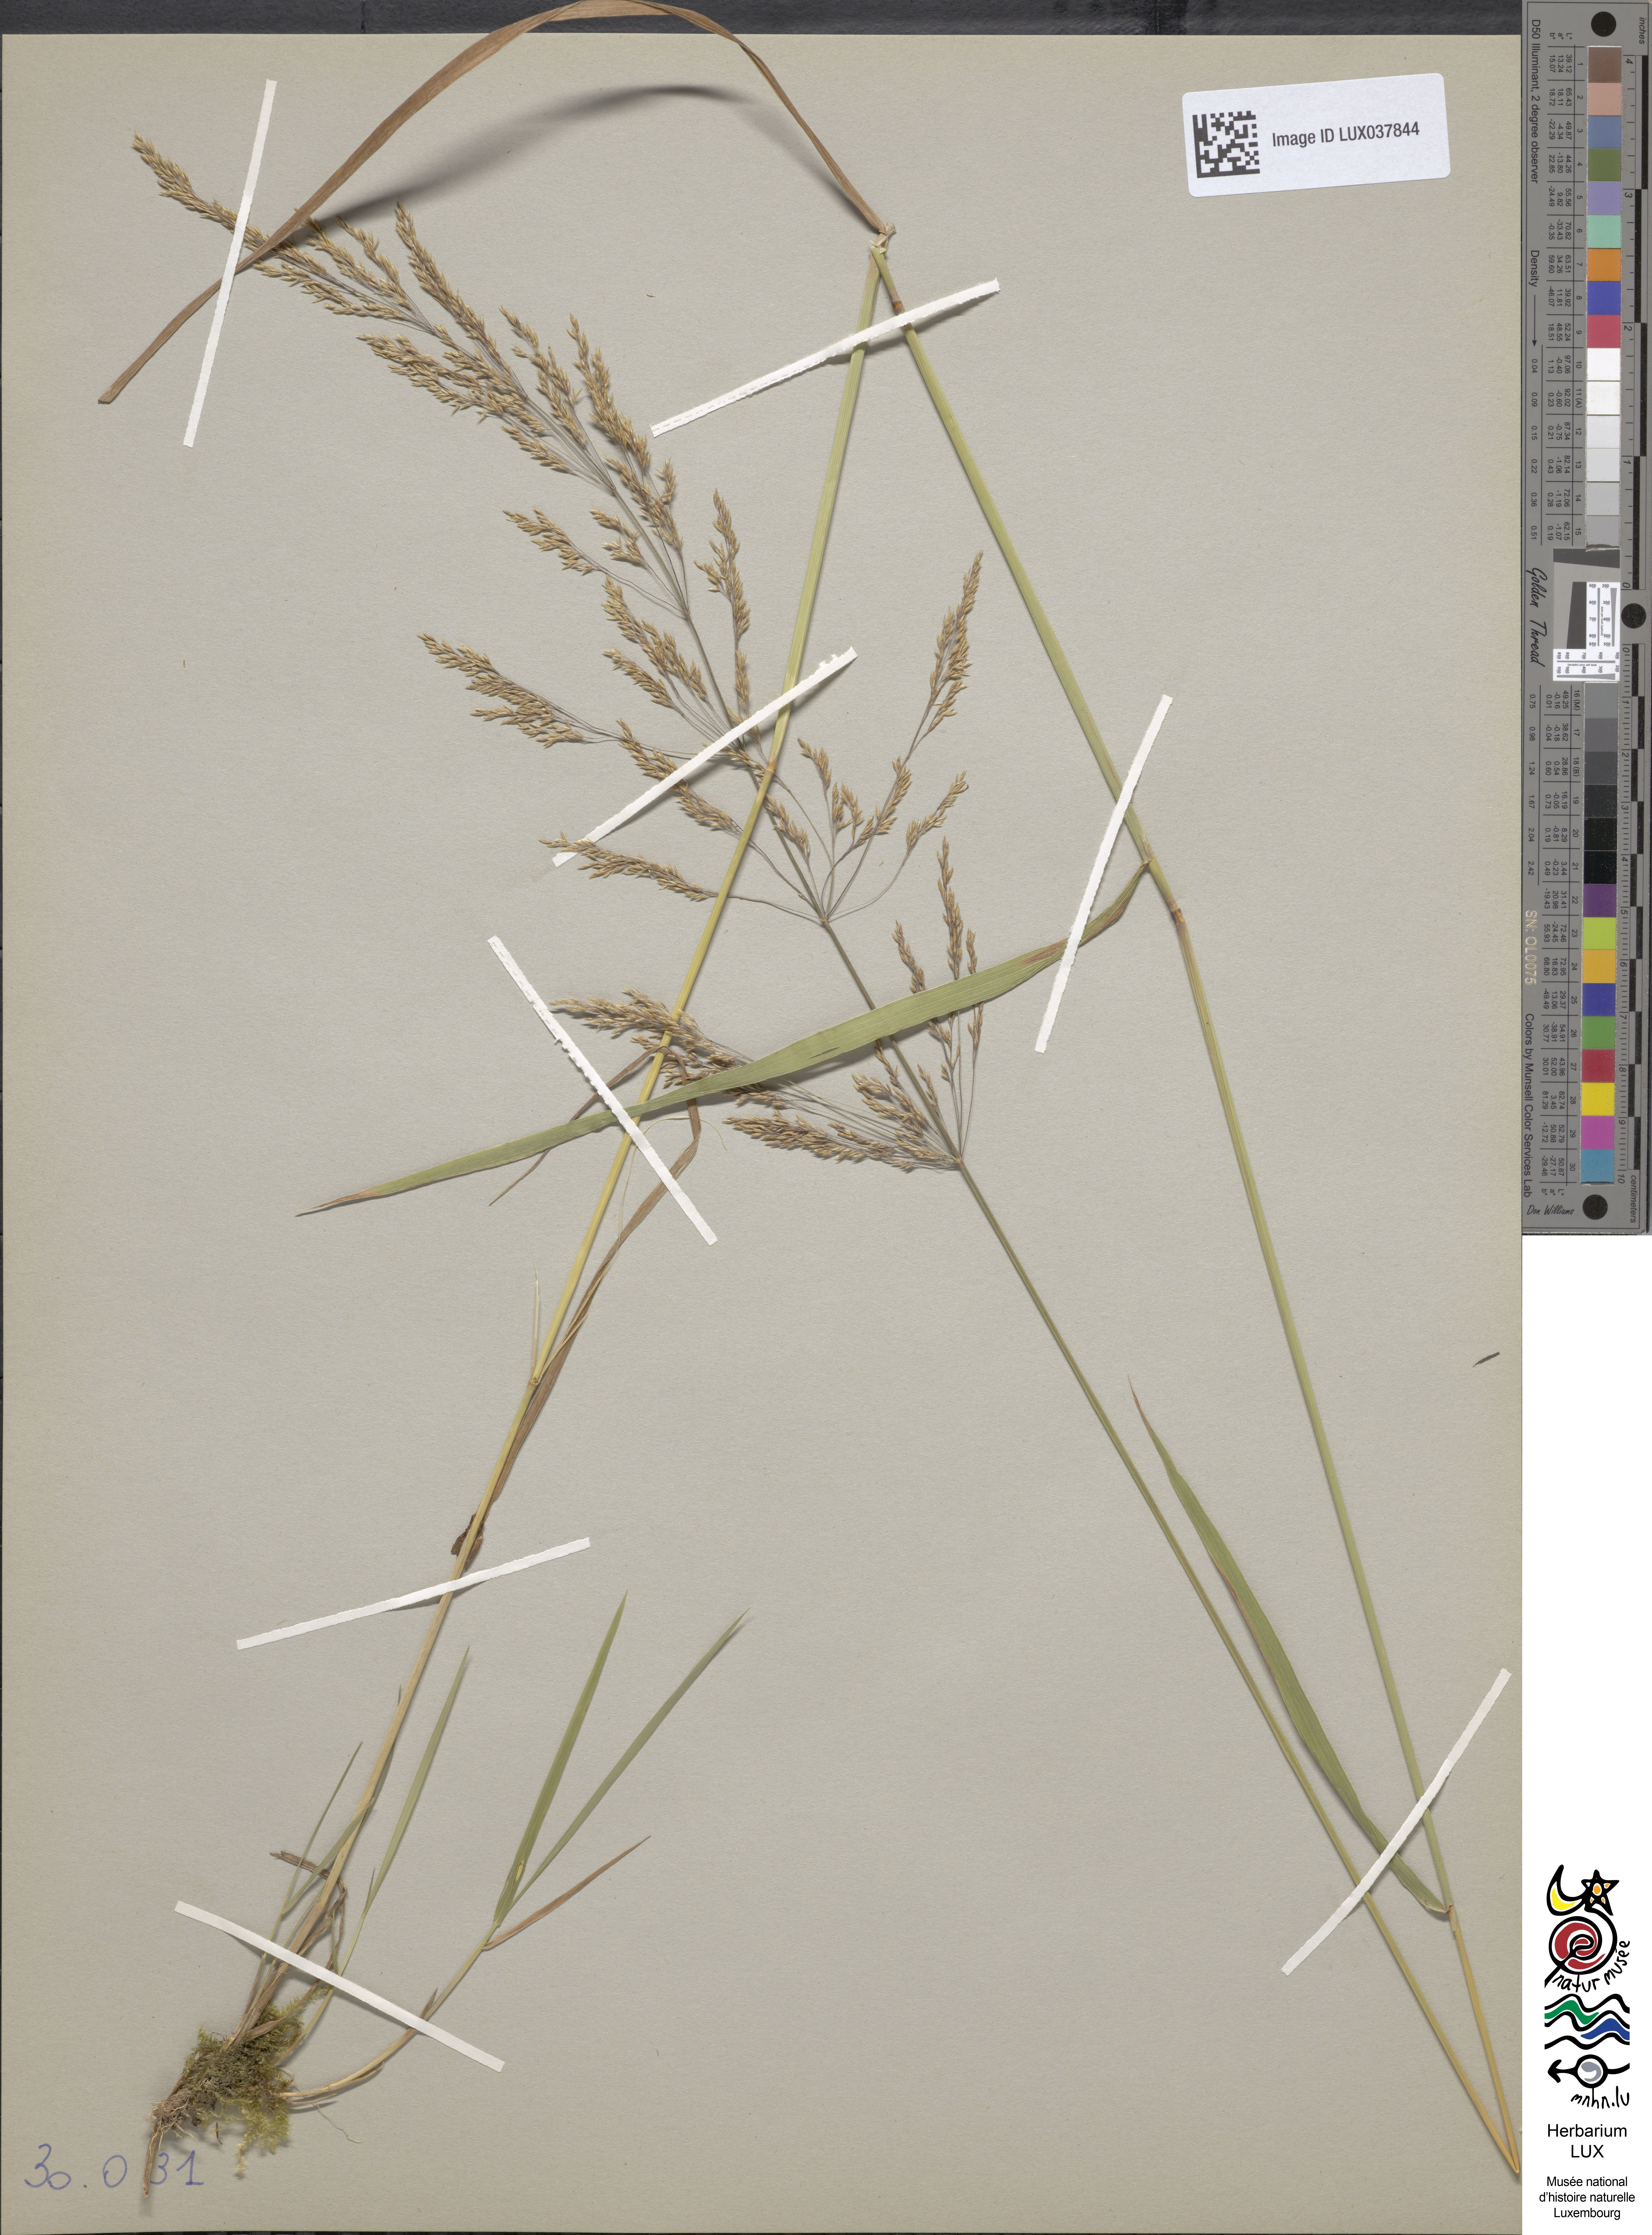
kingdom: Plantae
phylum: Tracheophyta
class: Liliopsida
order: Poales
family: Poaceae
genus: Agrostis
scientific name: Agrostis capillaris
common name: Colonial bentgrass
